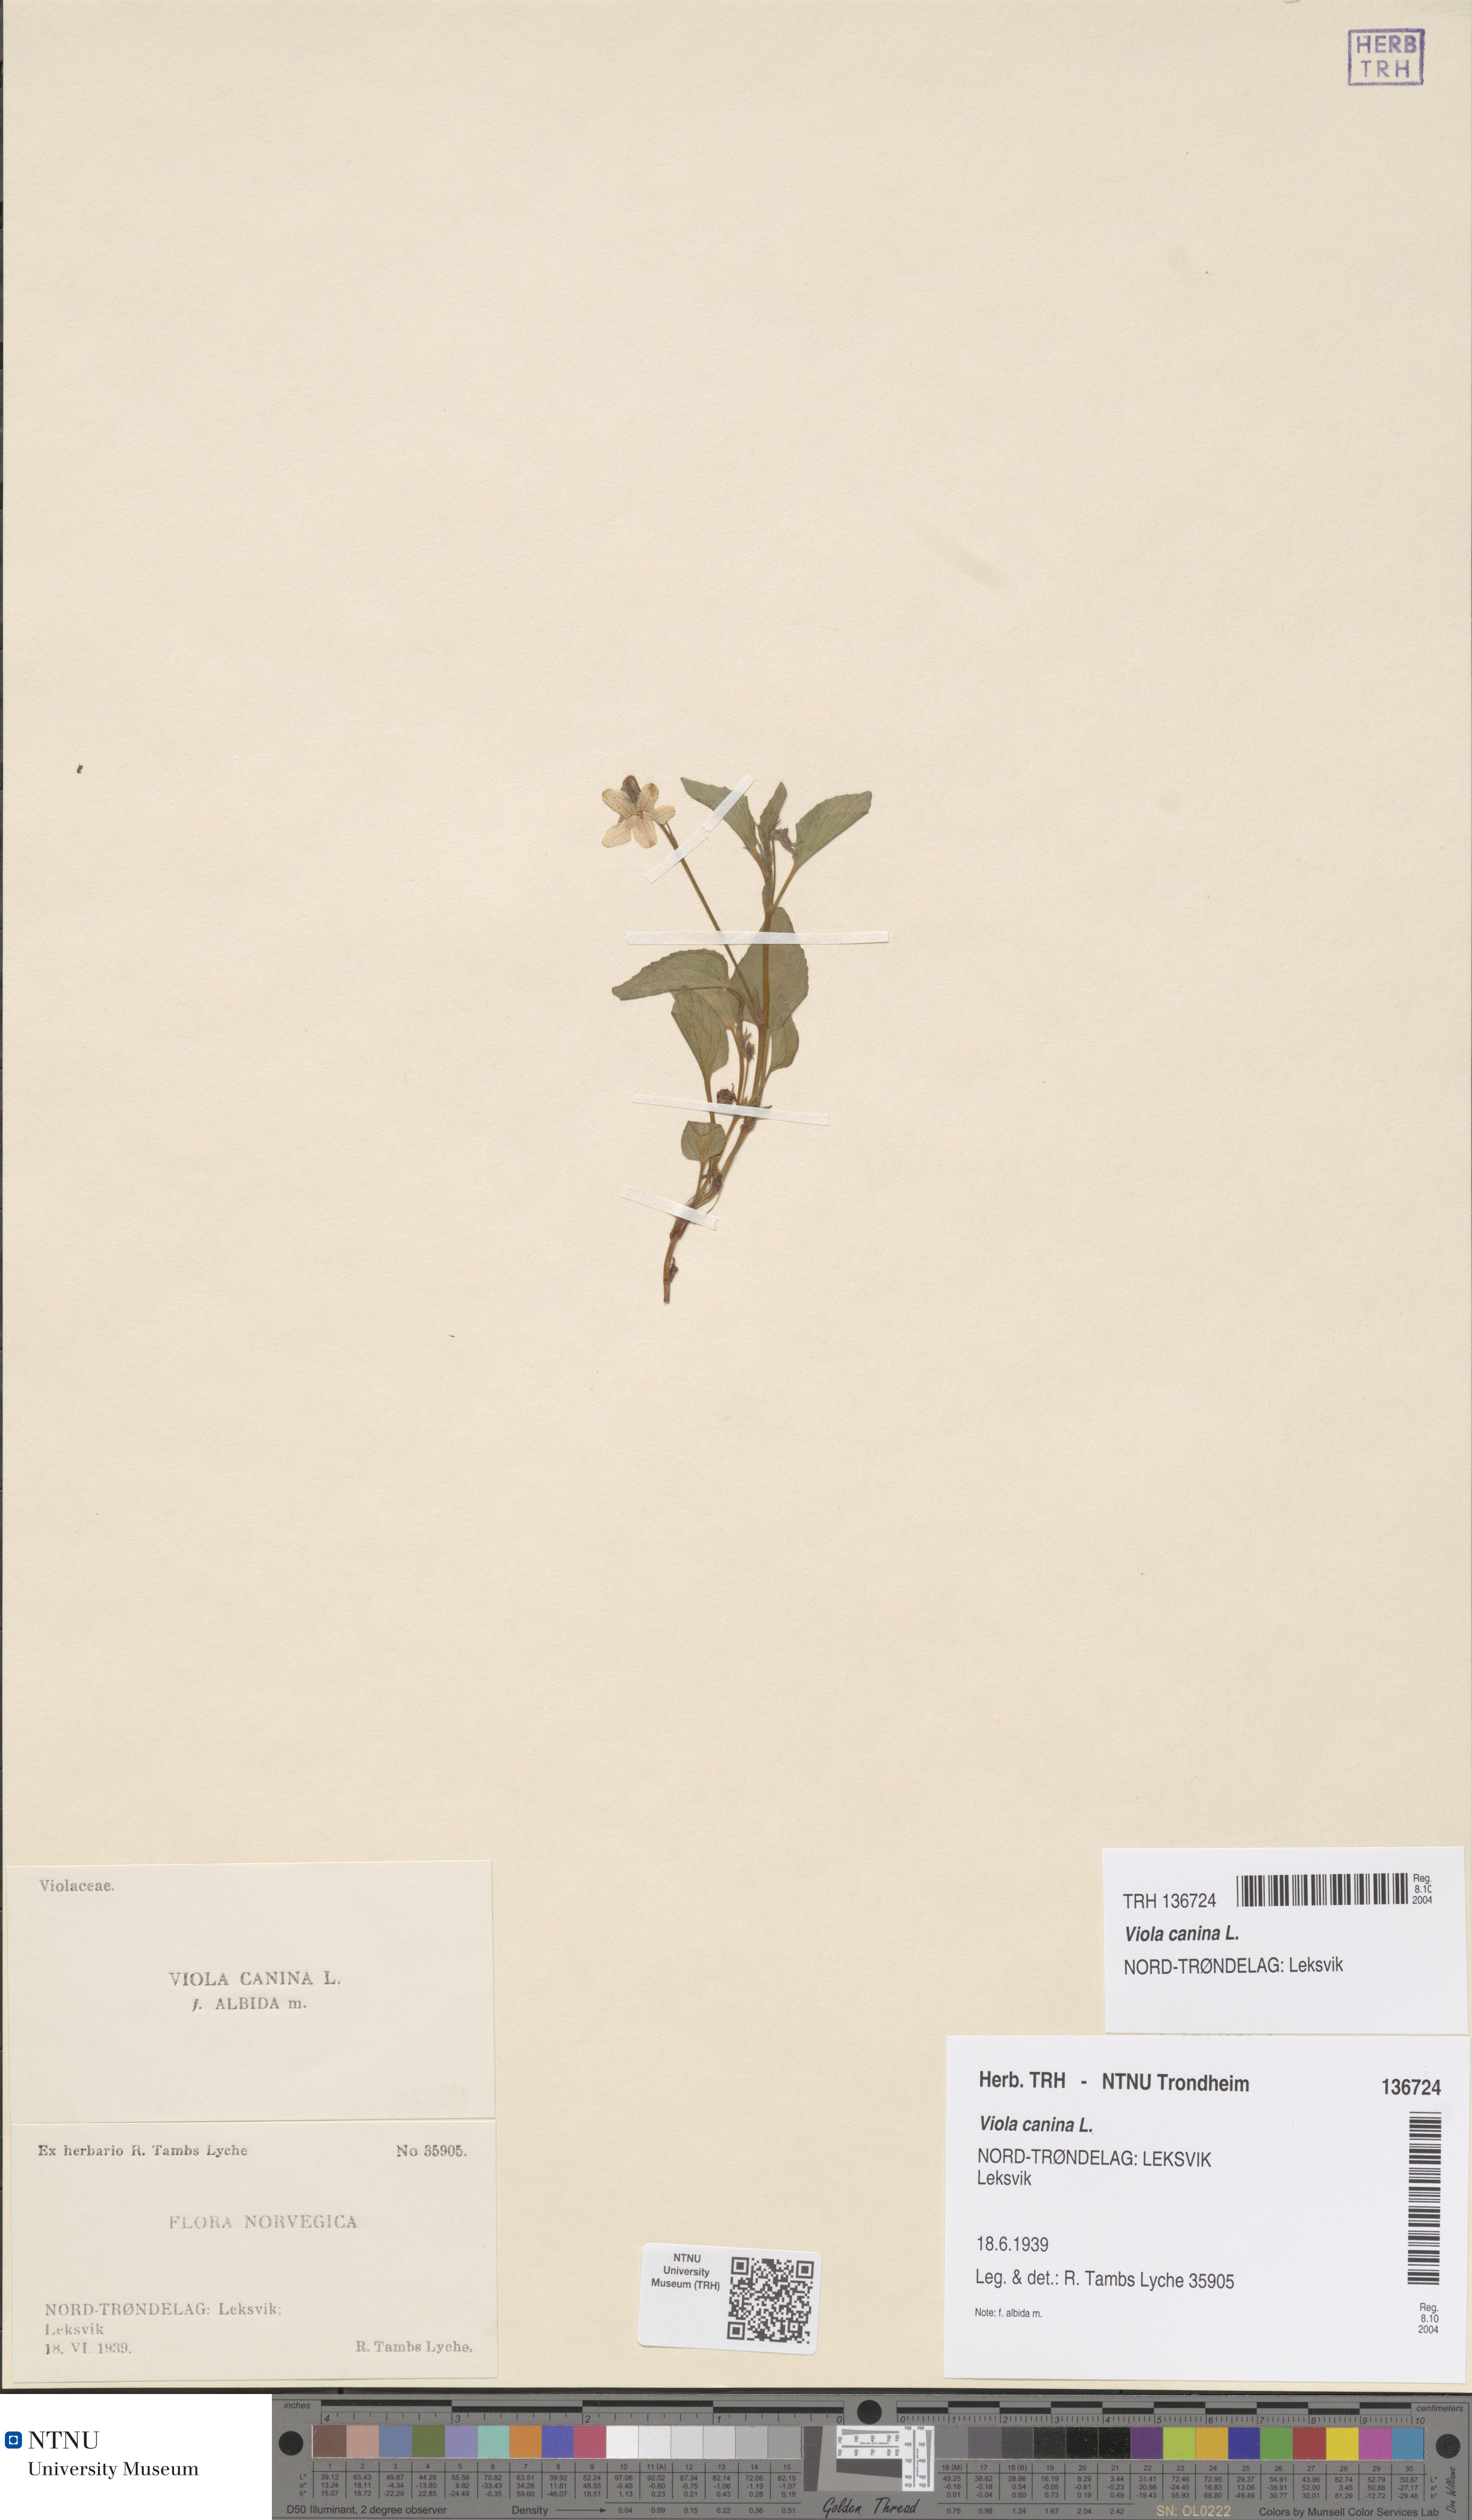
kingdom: Plantae
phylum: Tracheophyta
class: Magnoliopsida
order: Malpighiales
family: Violaceae
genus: Viola
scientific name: Viola canina
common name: Heath dog-violet
